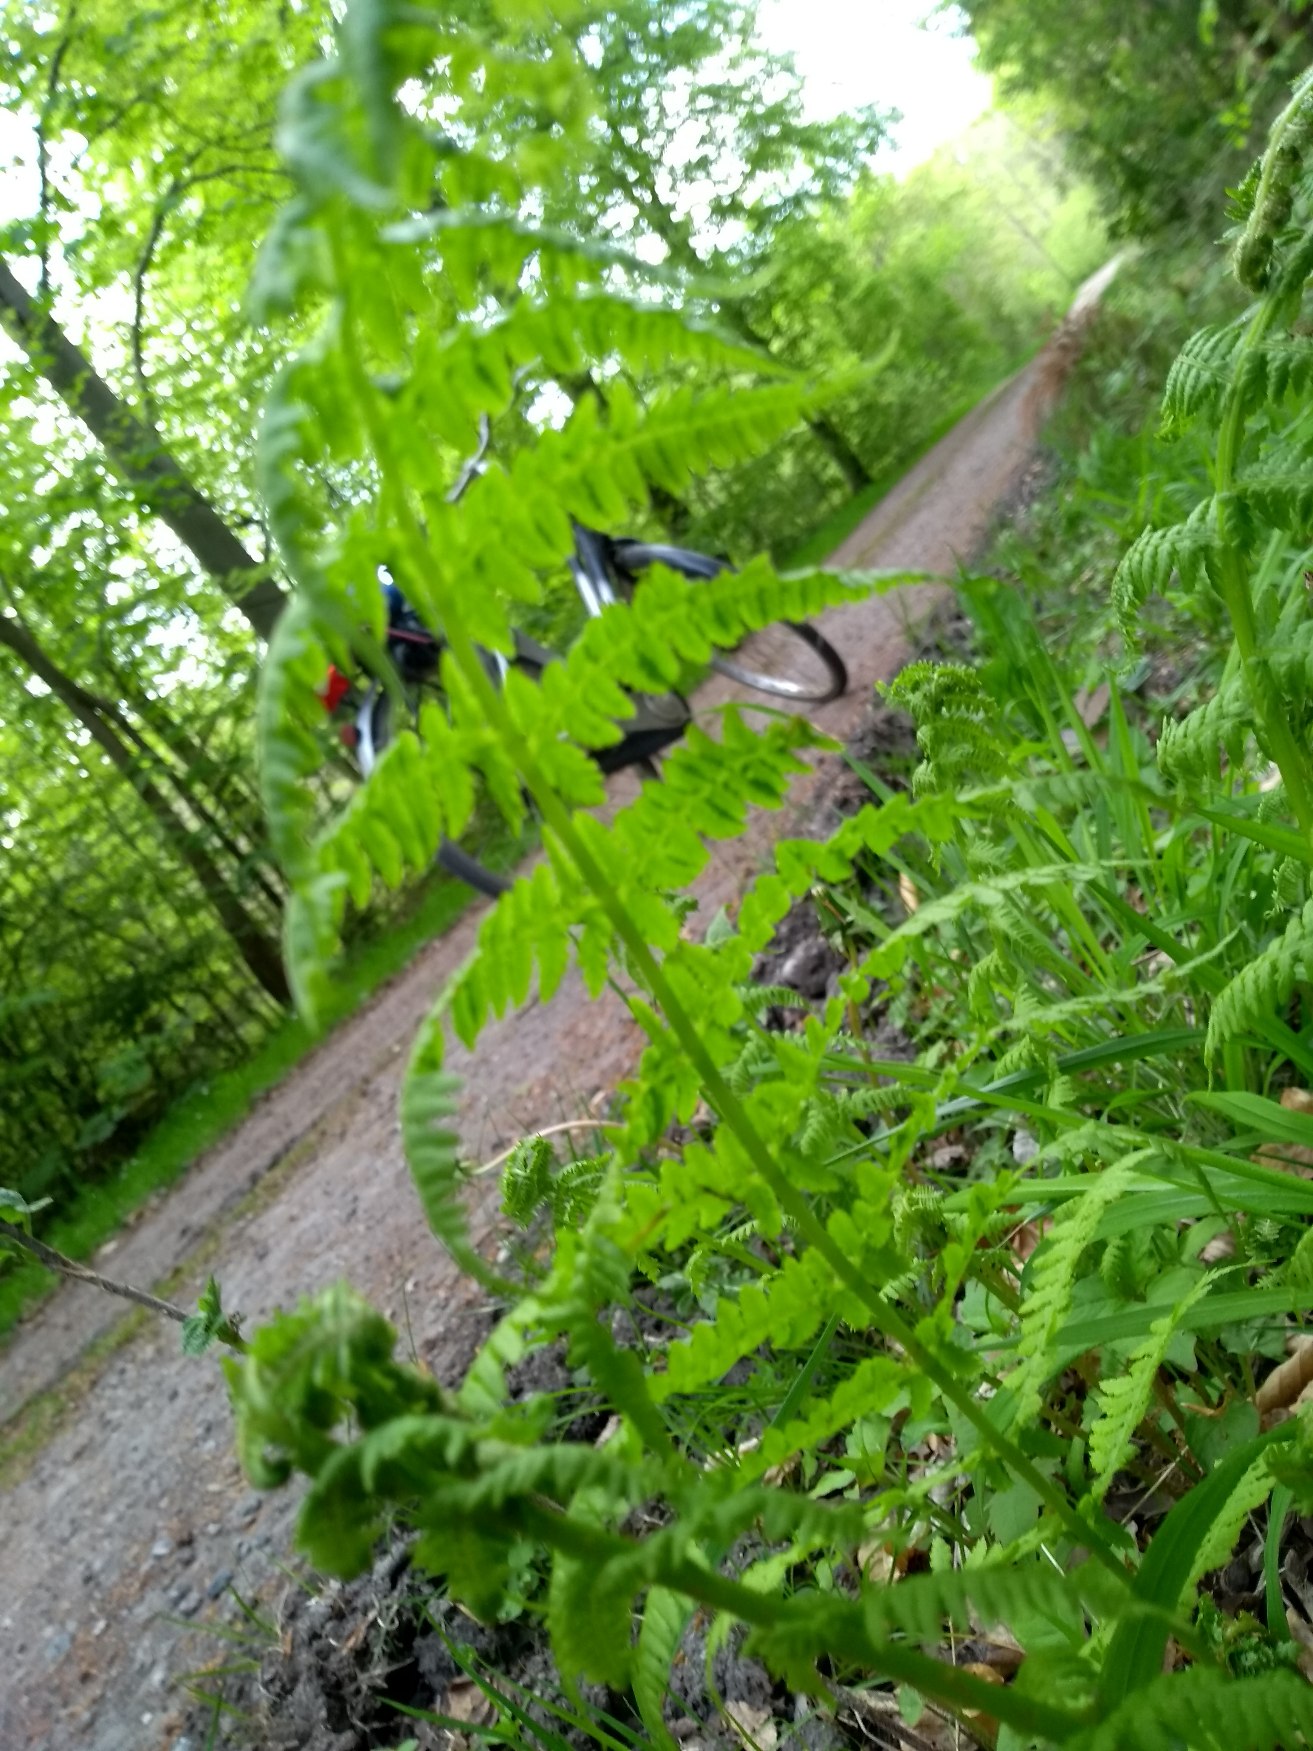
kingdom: Plantae
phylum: Tracheophyta
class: Polypodiopsida
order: Polypodiales
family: Athyriaceae
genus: Athyrium
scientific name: Athyrium filix-femina
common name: Fjerbregne
